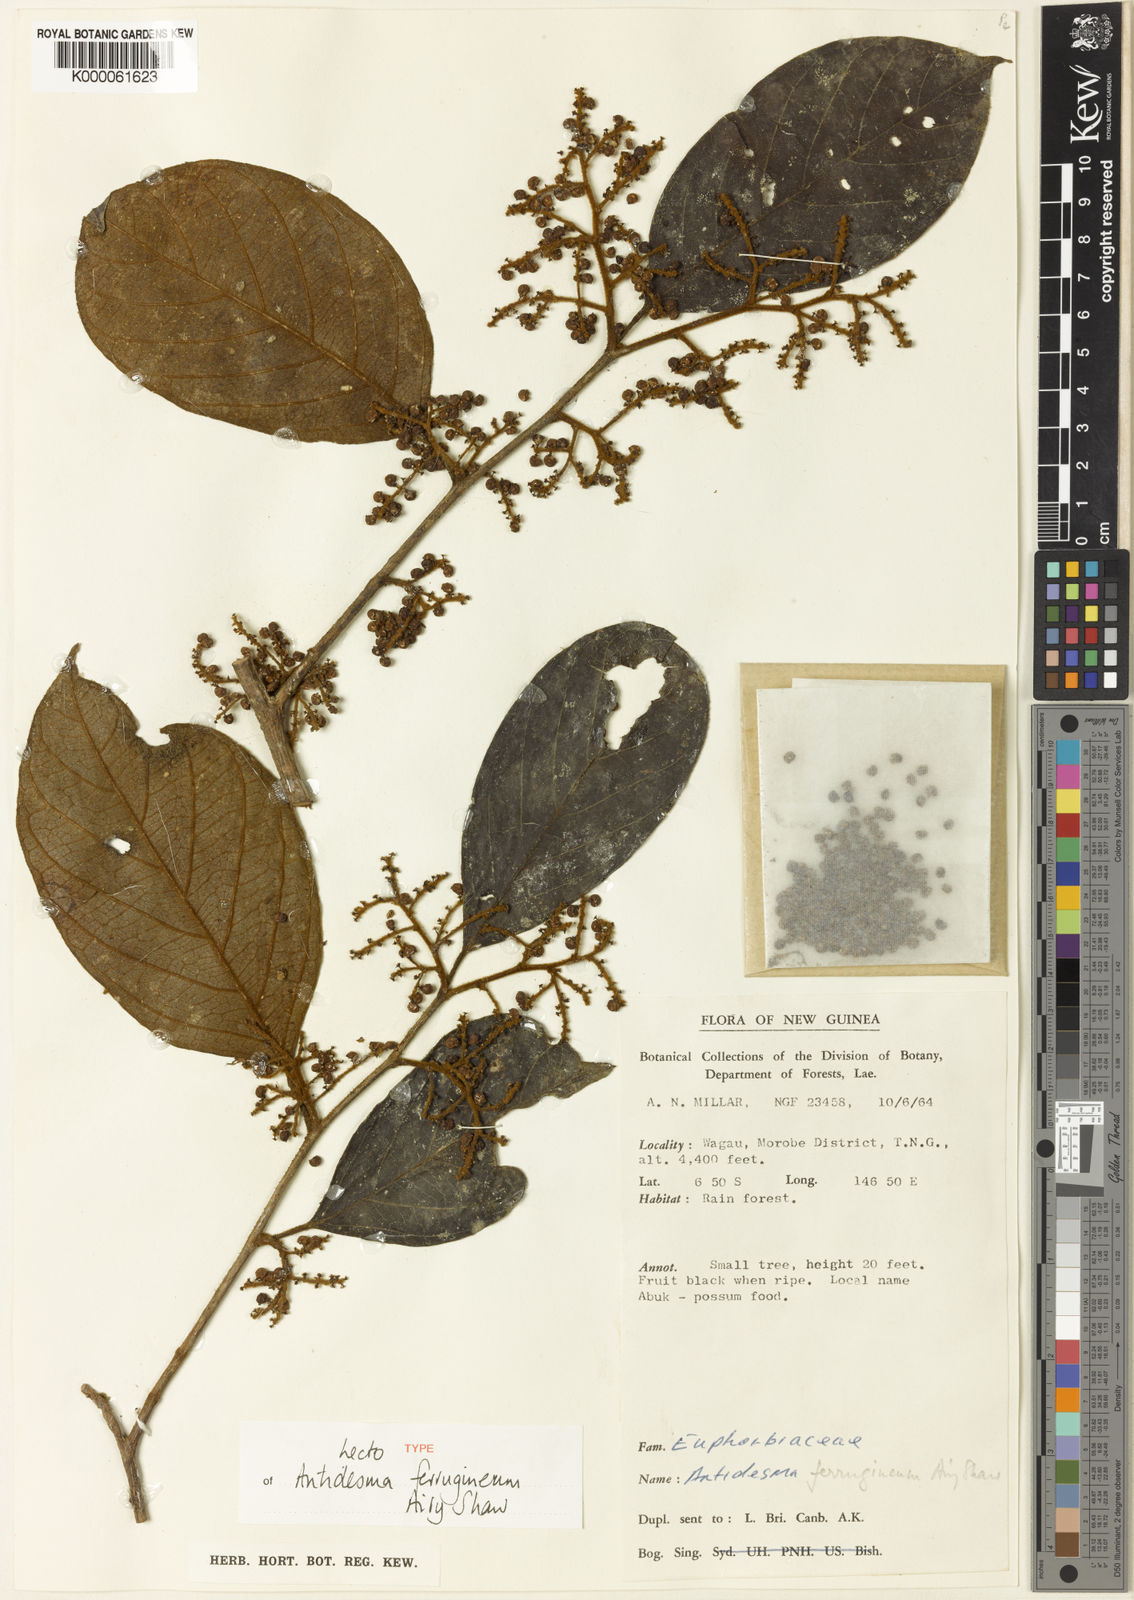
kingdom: Plantae
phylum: Tracheophyta
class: Magnoliopsida
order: Malpighiales
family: Phyllanthaceae
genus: Antidesma
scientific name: Antidesma ferrugineum
